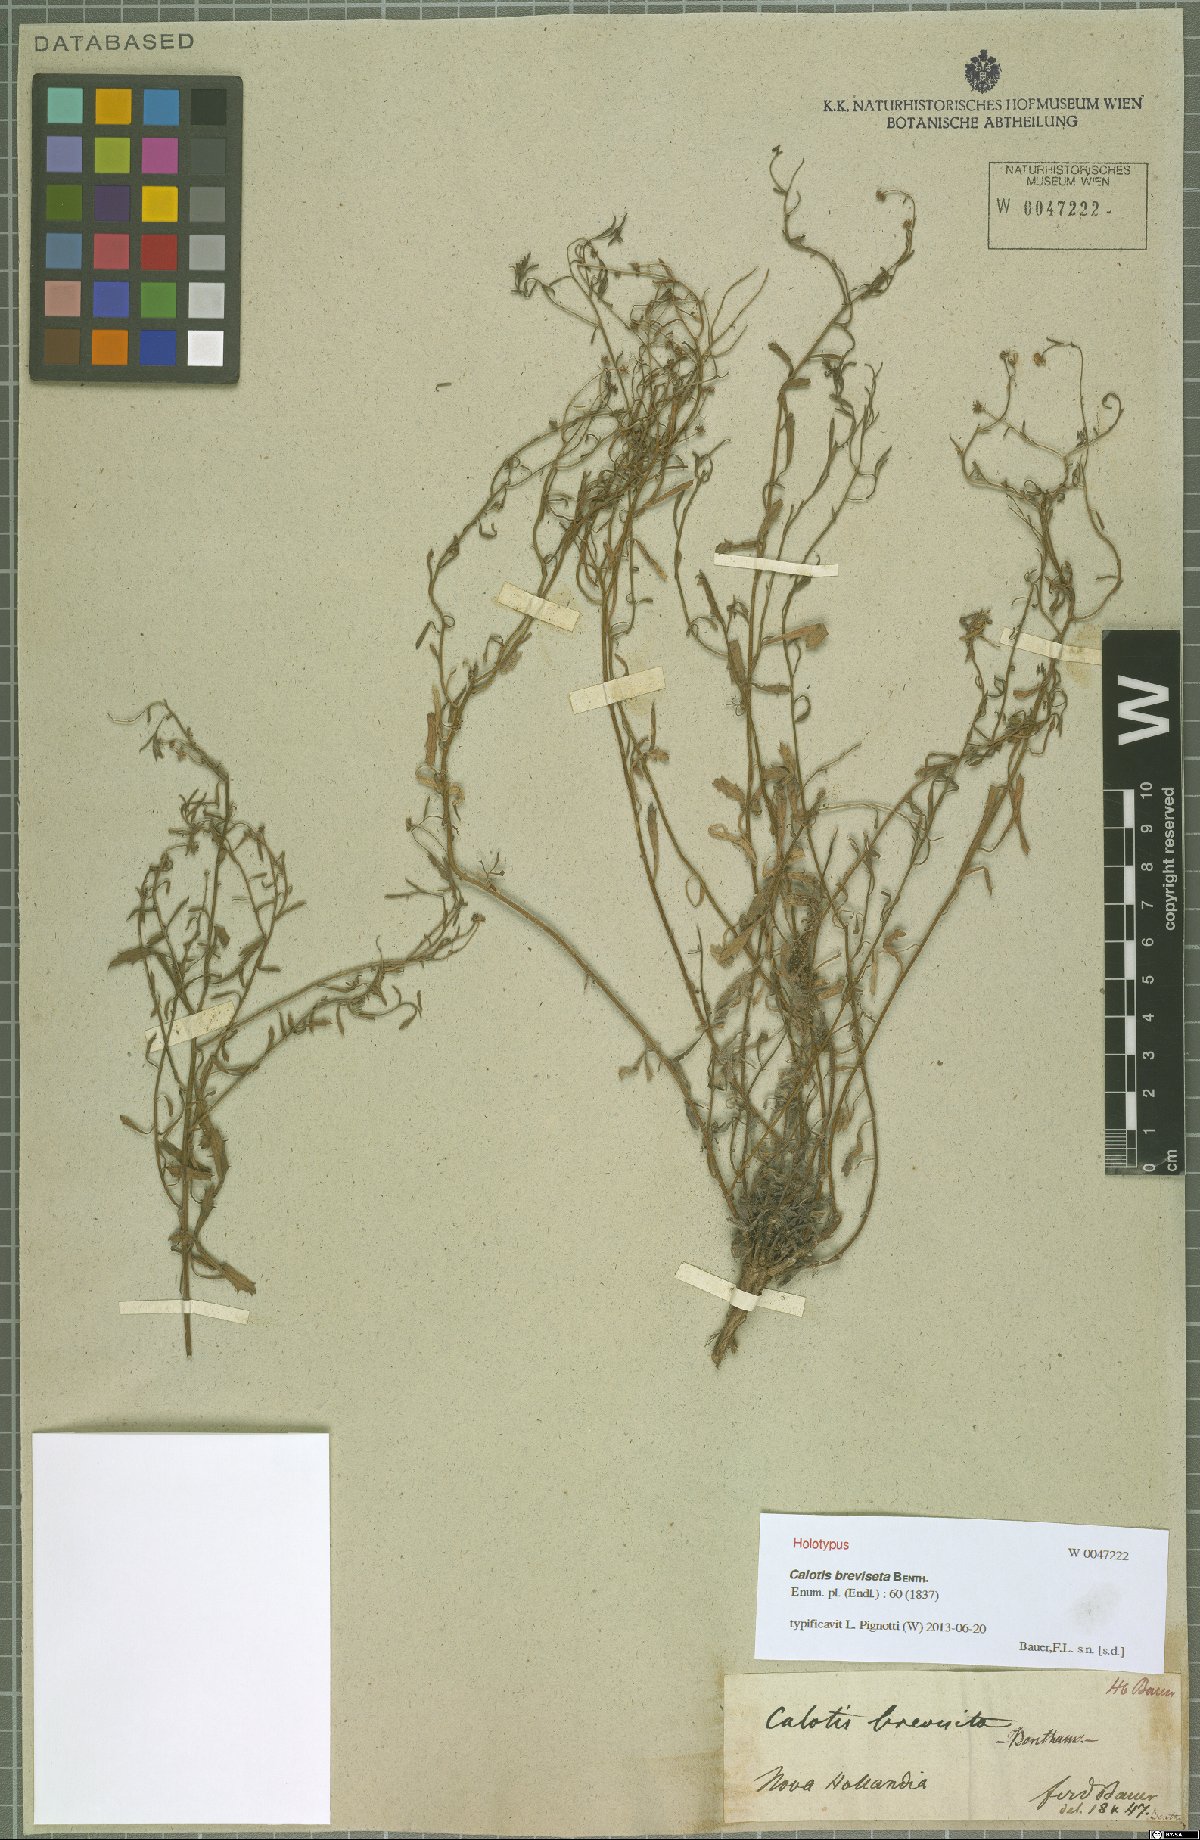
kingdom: Plantae
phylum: Tracheophyta
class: Magnoliopsida
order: Asterales
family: Asteraceae
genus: Calotis
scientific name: Calotis breviseta
